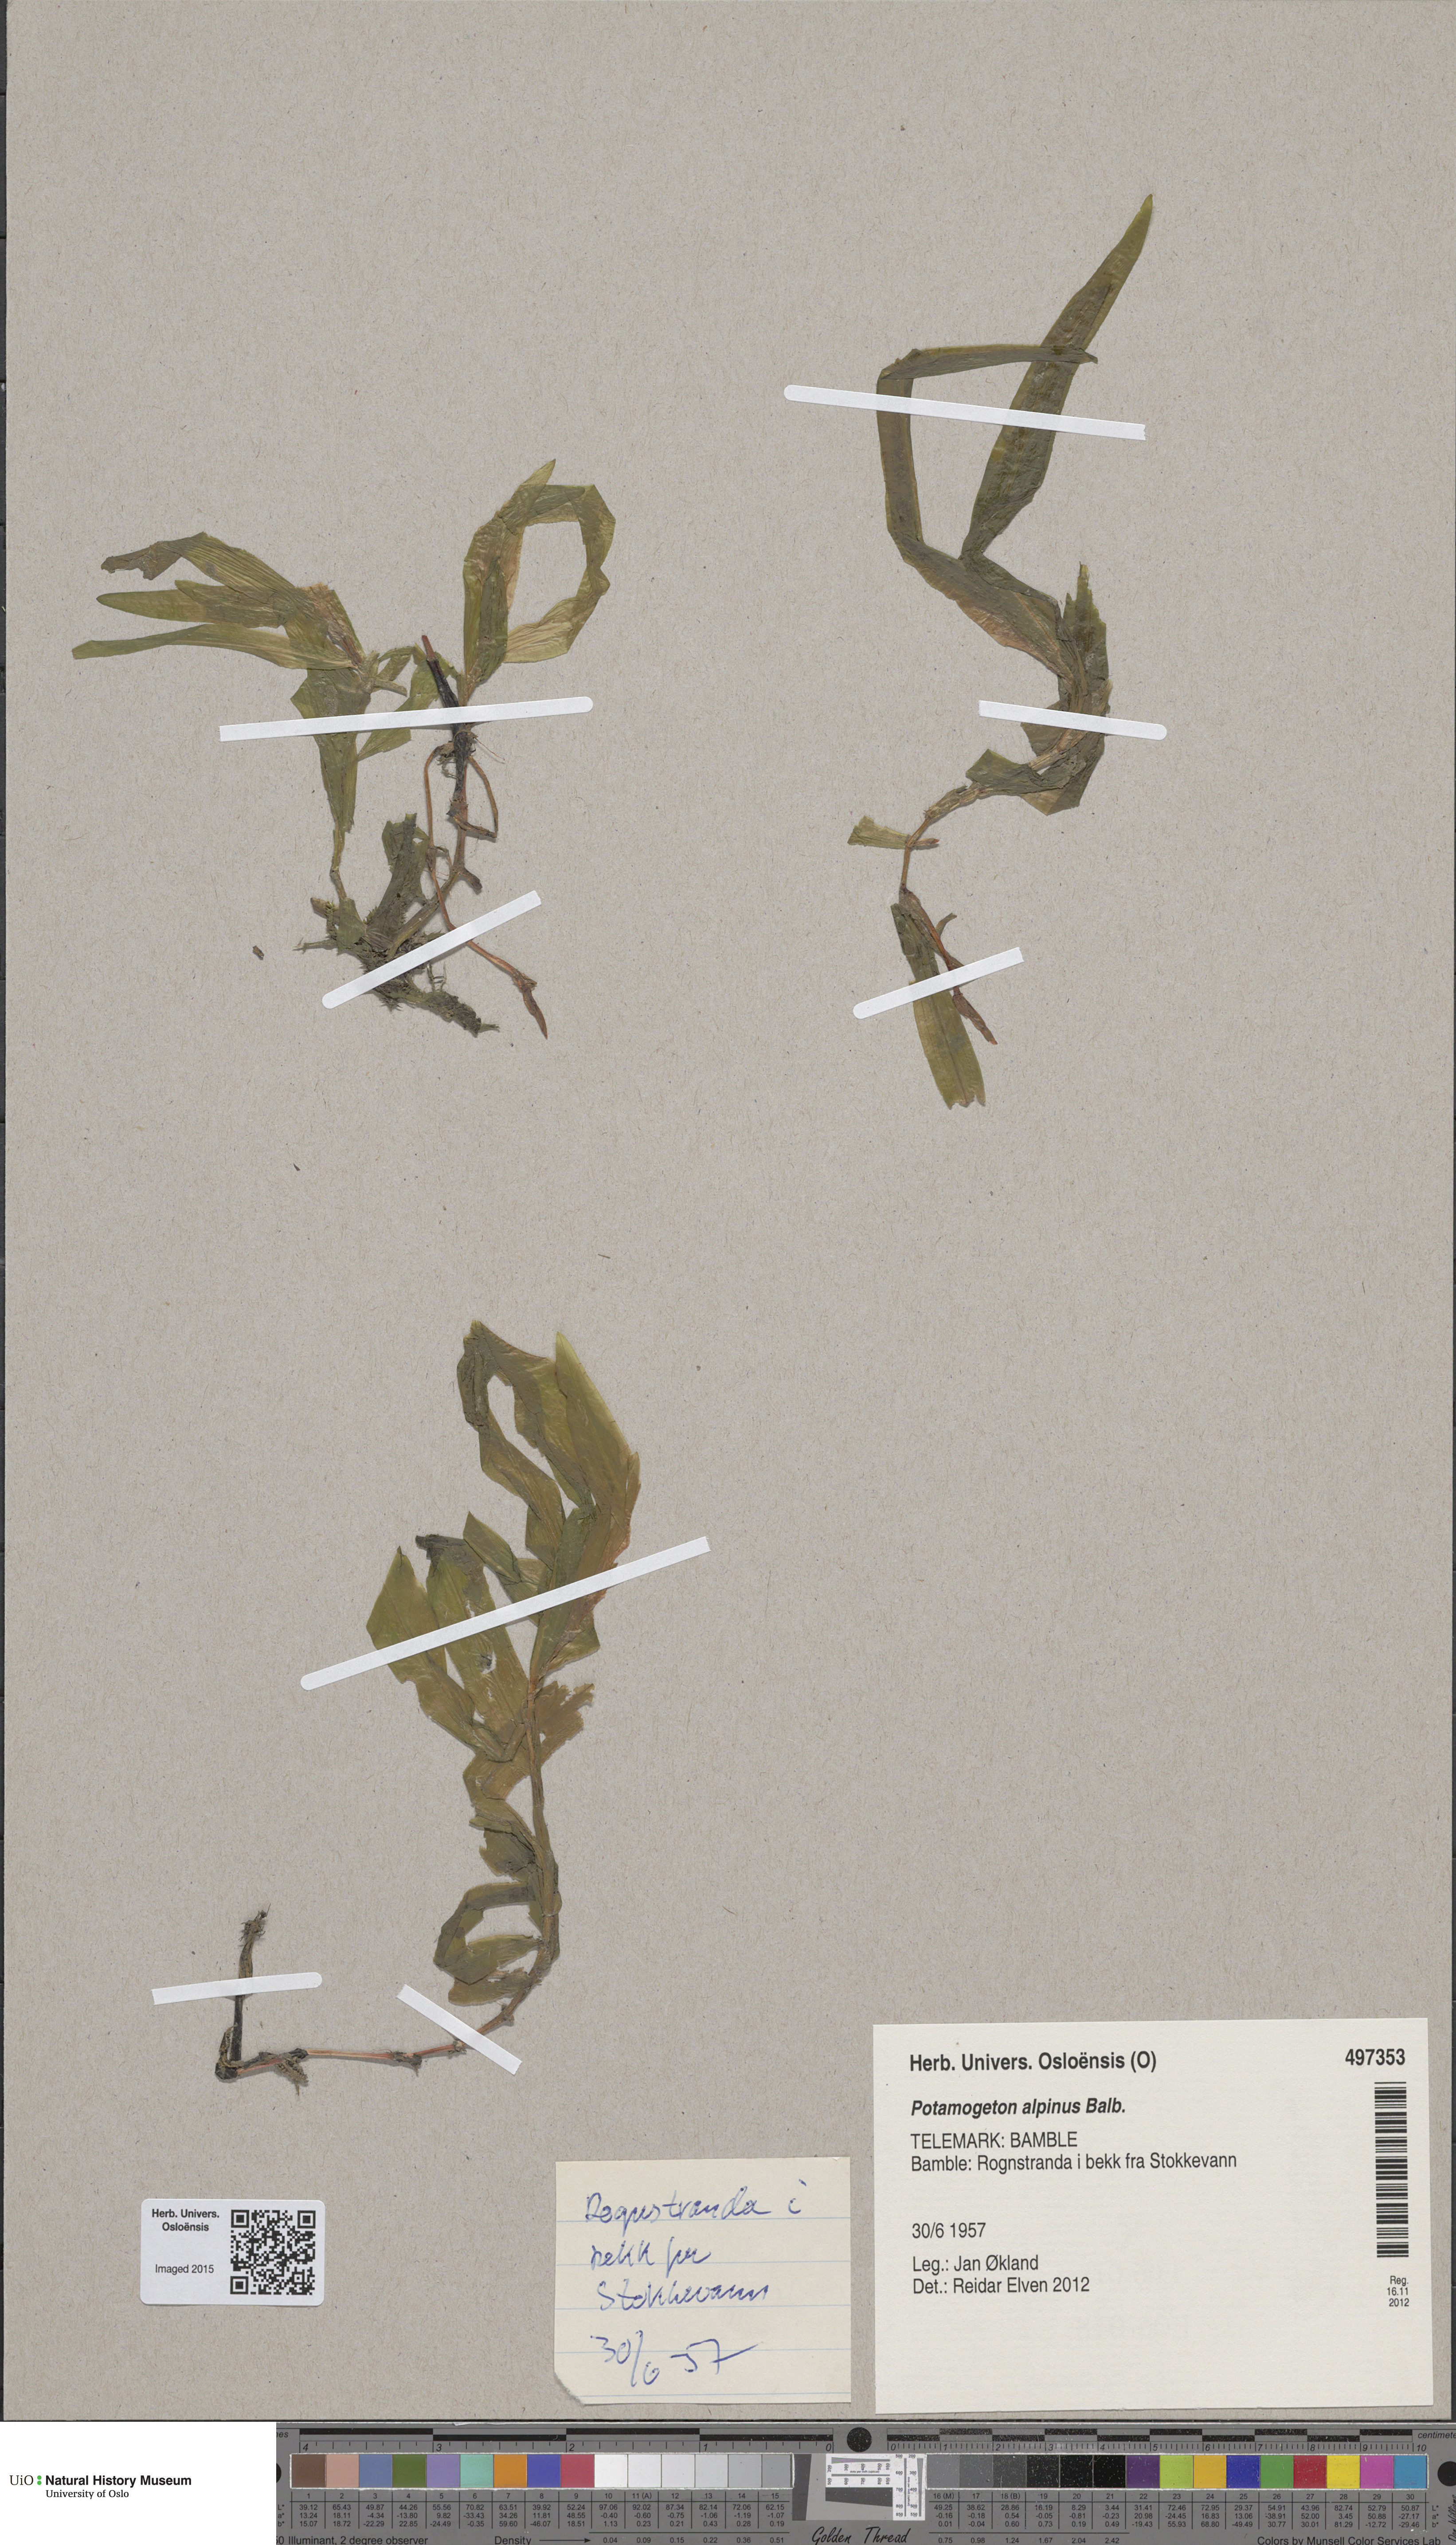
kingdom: Plantae
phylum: Tracheophyta
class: Liliopsida
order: Alismatales
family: Potamogetonaceae
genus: Potamogeton
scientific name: Potamogeton alpinus
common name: Red pondweed
